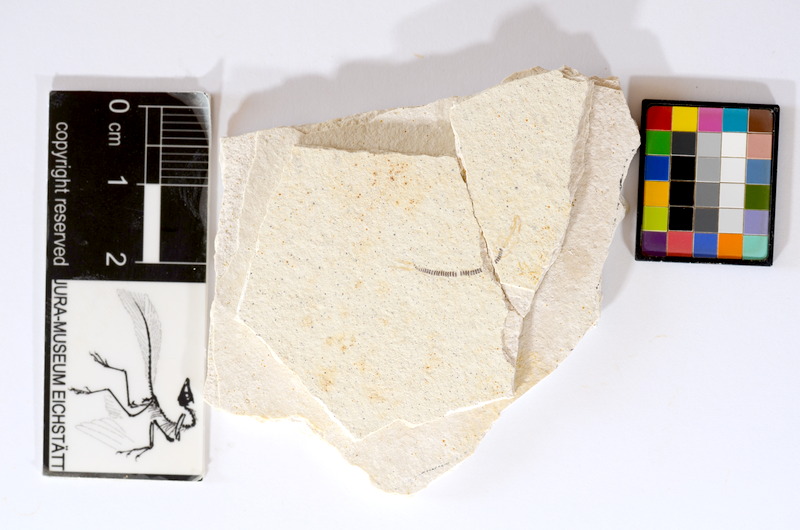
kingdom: Animalia
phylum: Chordata
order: Salmoniformes
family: Orthogonikleithridae
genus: Orthogonikleithrus
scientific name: Orthogonikleithrus hoelli
